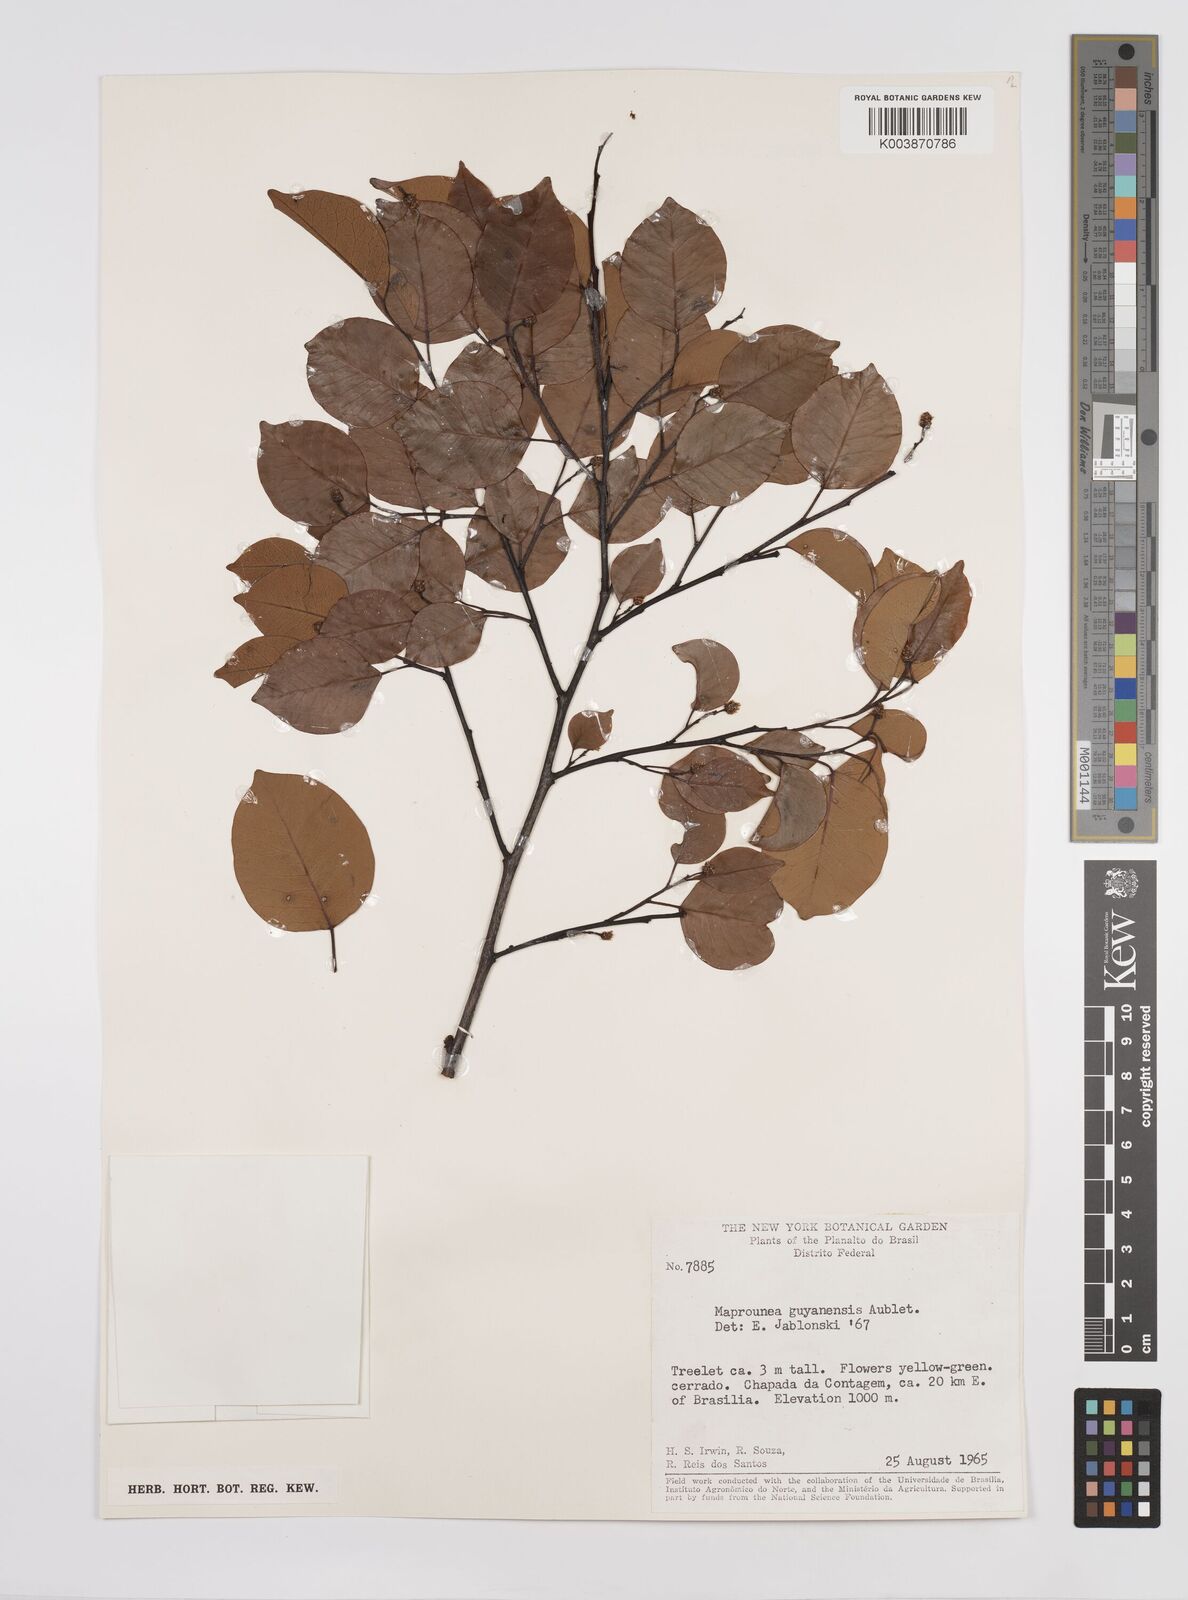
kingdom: Plantae
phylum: Tracheophyta
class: Magnoliopsida
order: Malpighiales
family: Euphorbiaceae
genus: Maprounea
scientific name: Maprounea guianensis
